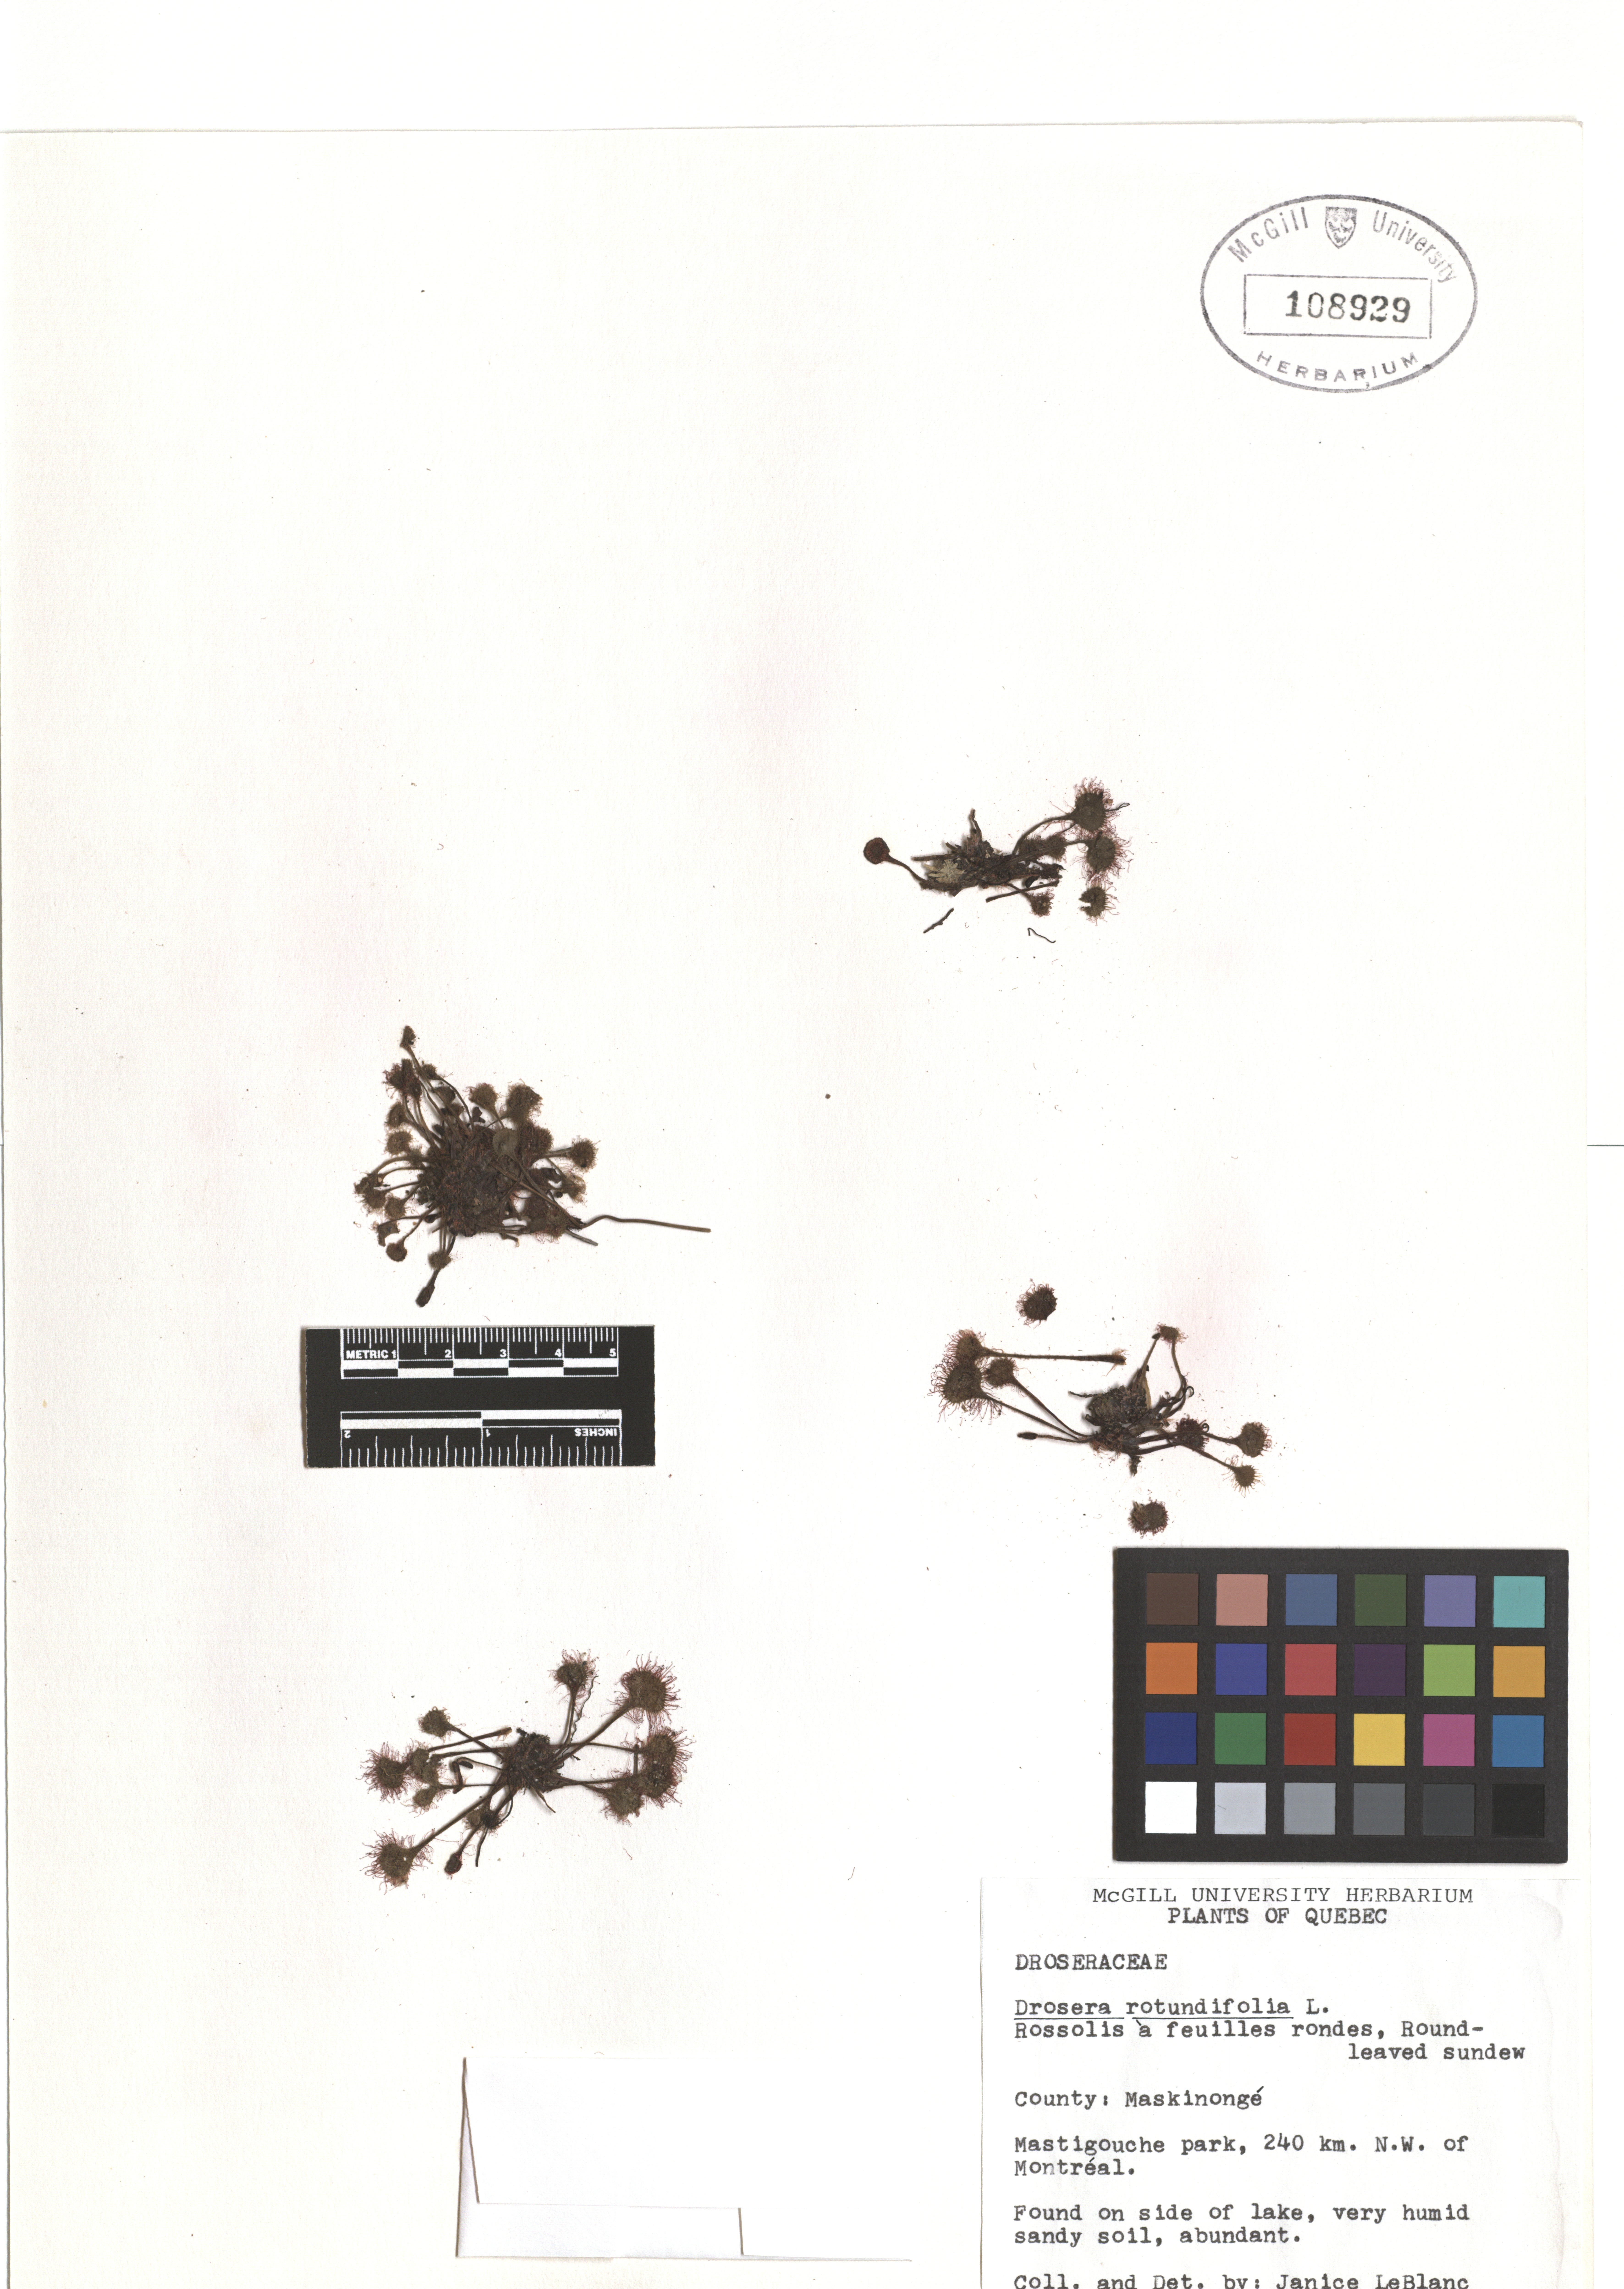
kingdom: Plantae
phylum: Tracheophyta
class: Magnoliopsida
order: Caryophyllales
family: Droseraceae
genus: Drosera
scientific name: Drosera rotundifolia
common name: Round-leaved sundew
